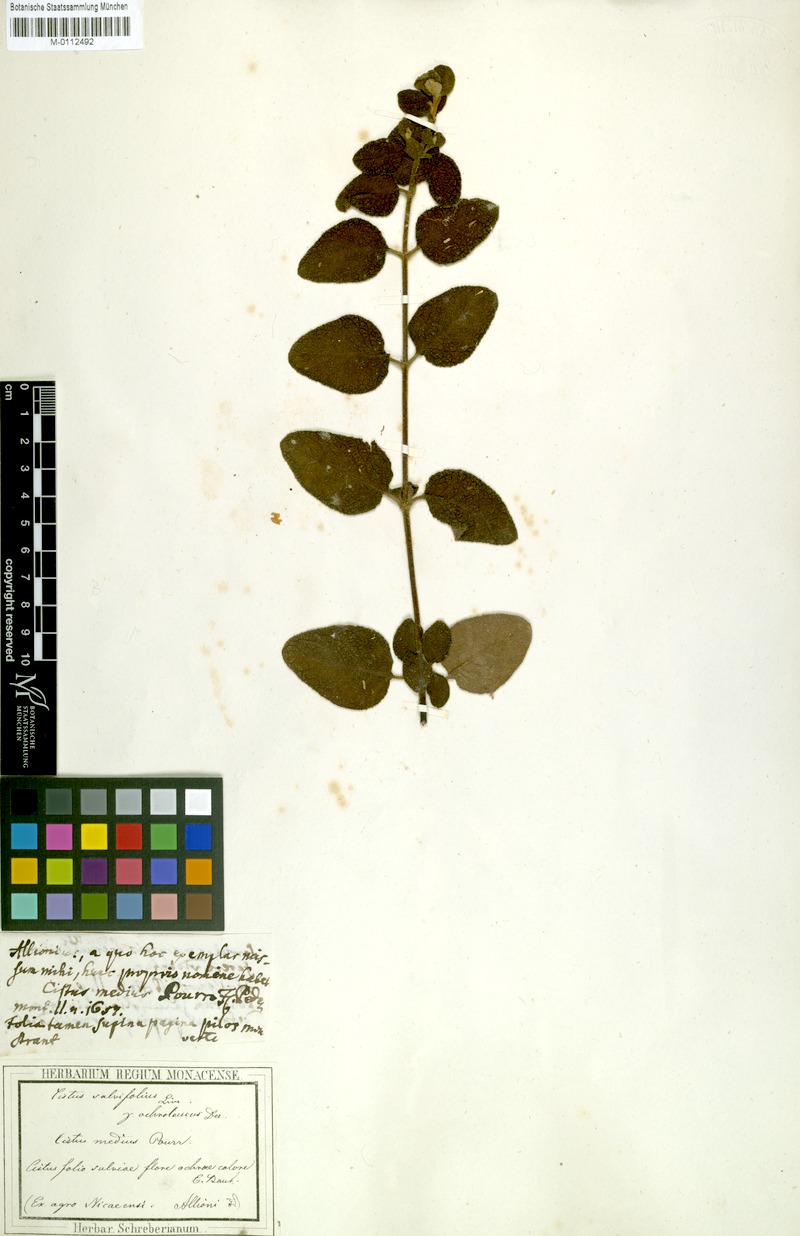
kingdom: Plantae
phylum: Tracheophyta
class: Magnoliopsida
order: Malvales
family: Cistaceae
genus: Cistus
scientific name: Cistus medius
